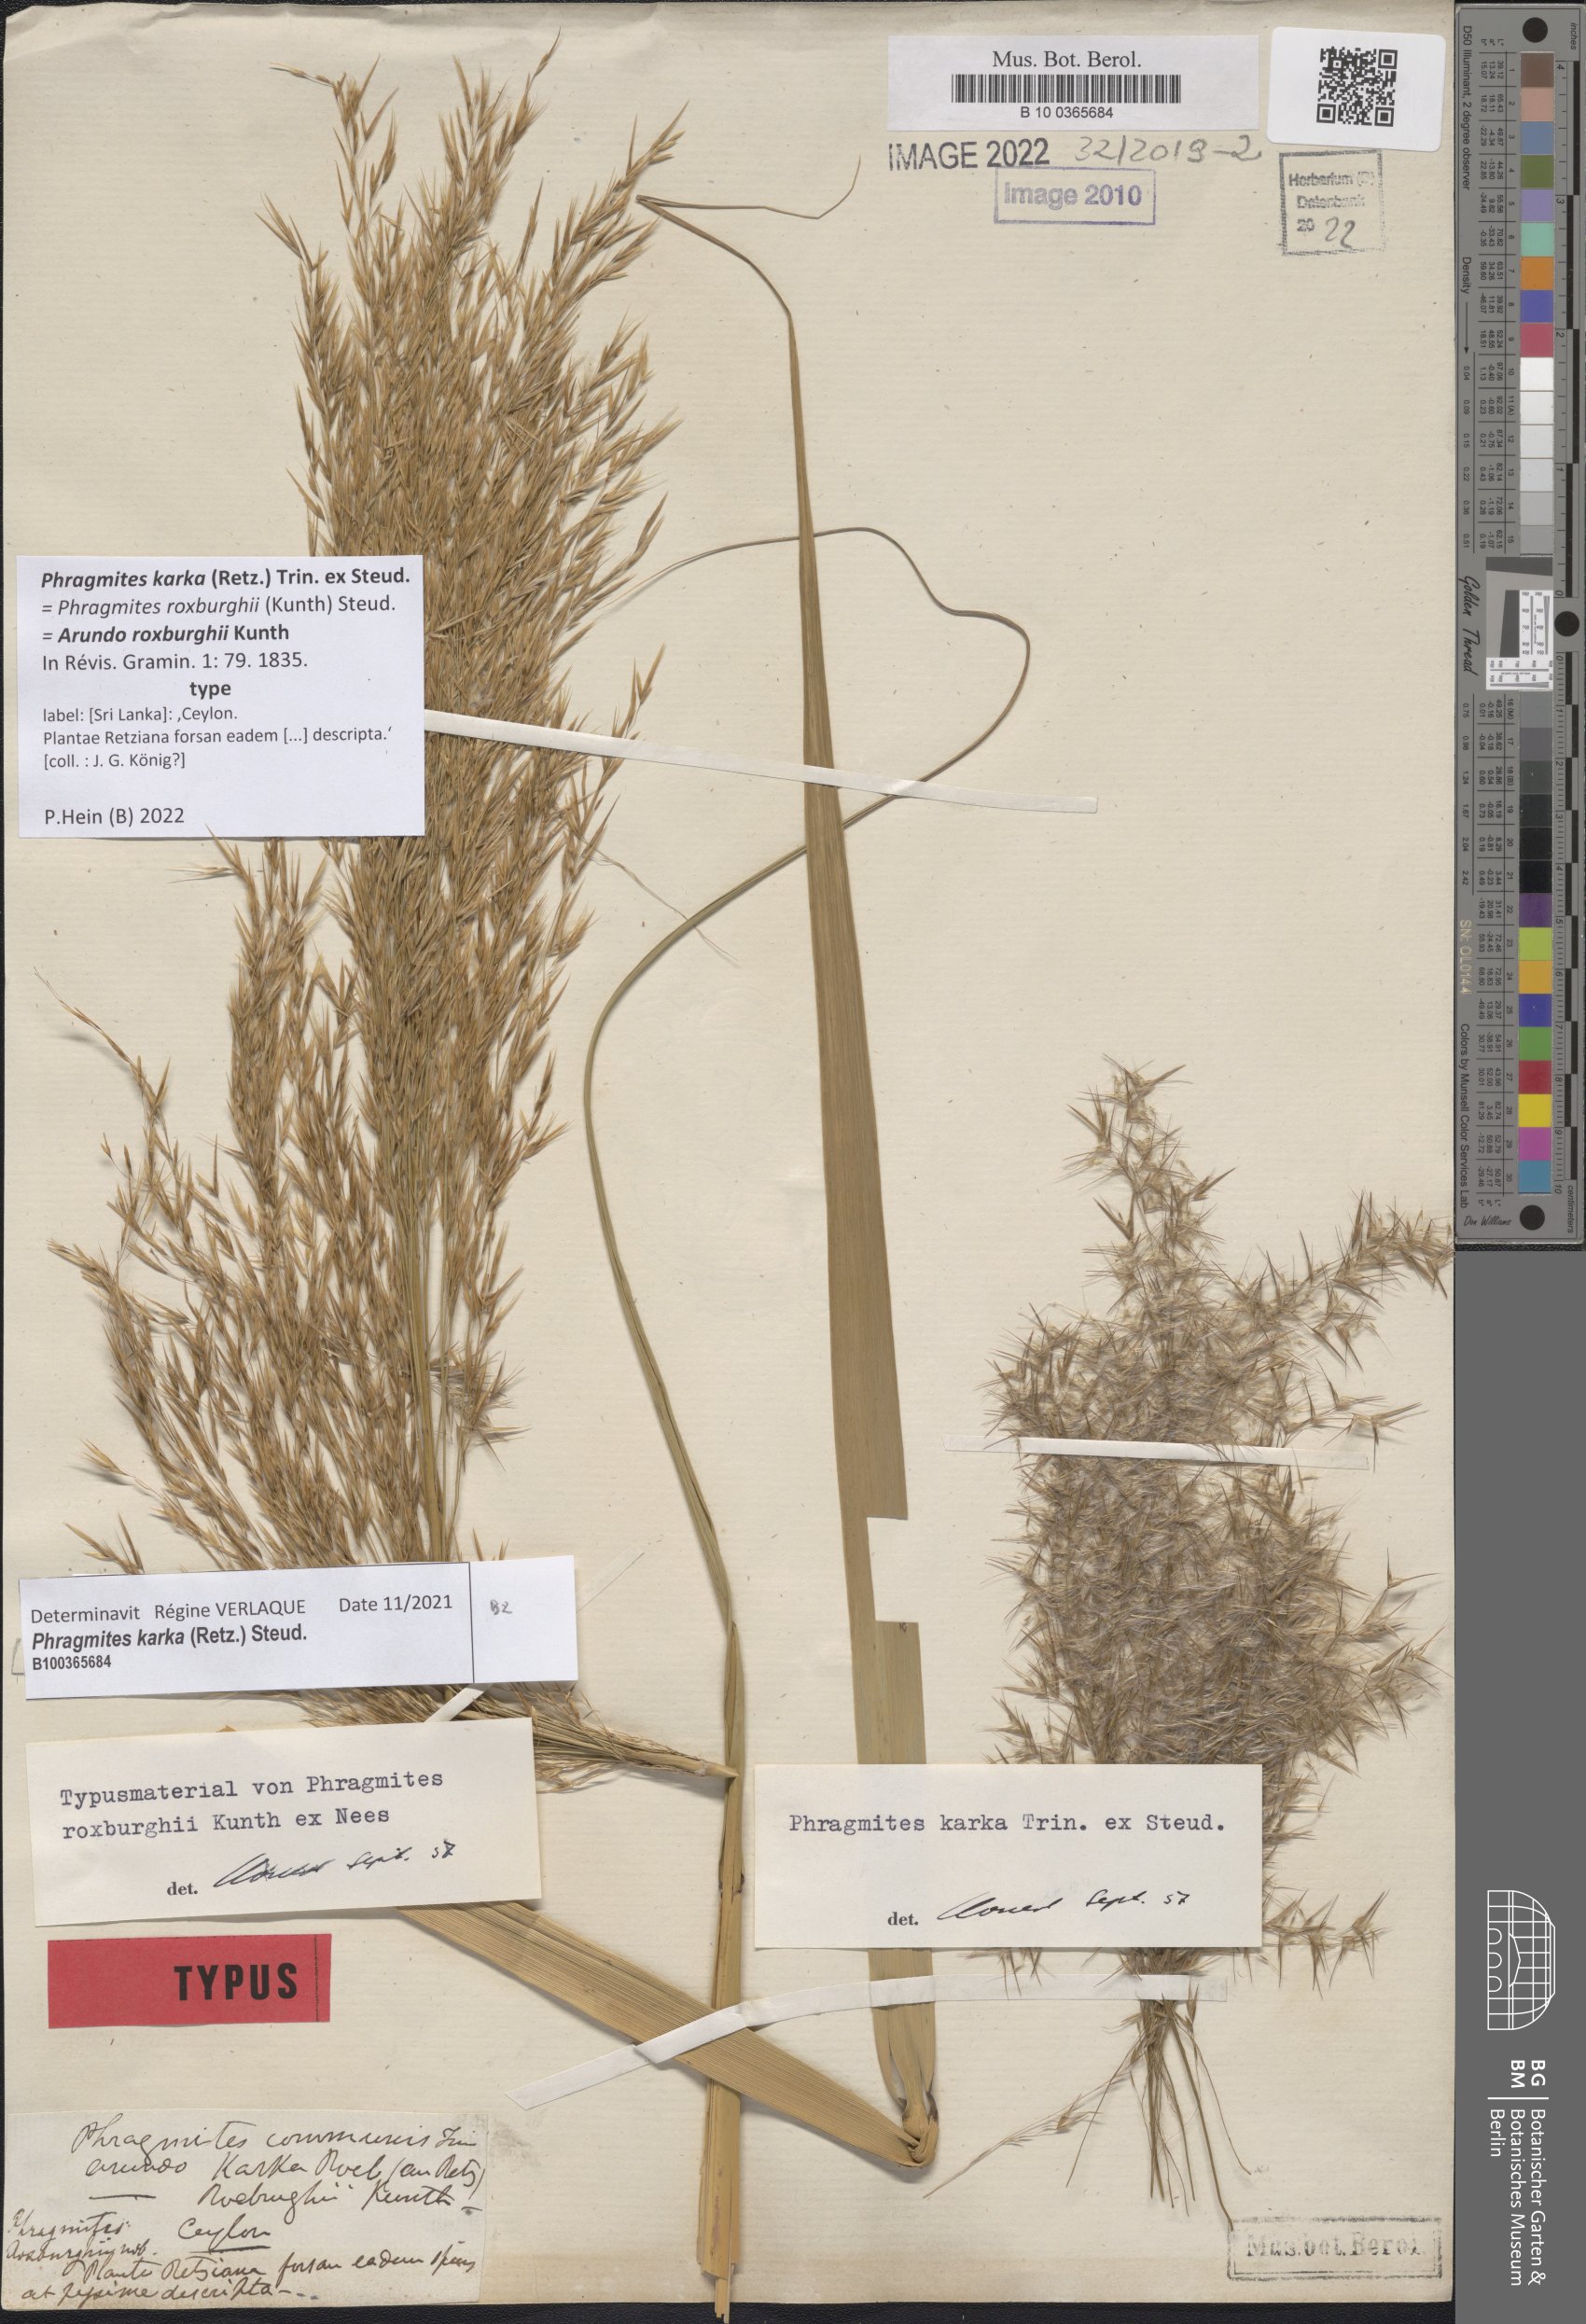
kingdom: Plantae
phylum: Tracheophyta
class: Liliopsida
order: Poales
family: Poaceae
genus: Phragmites
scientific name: Phragmites karka
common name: Tropical reed
